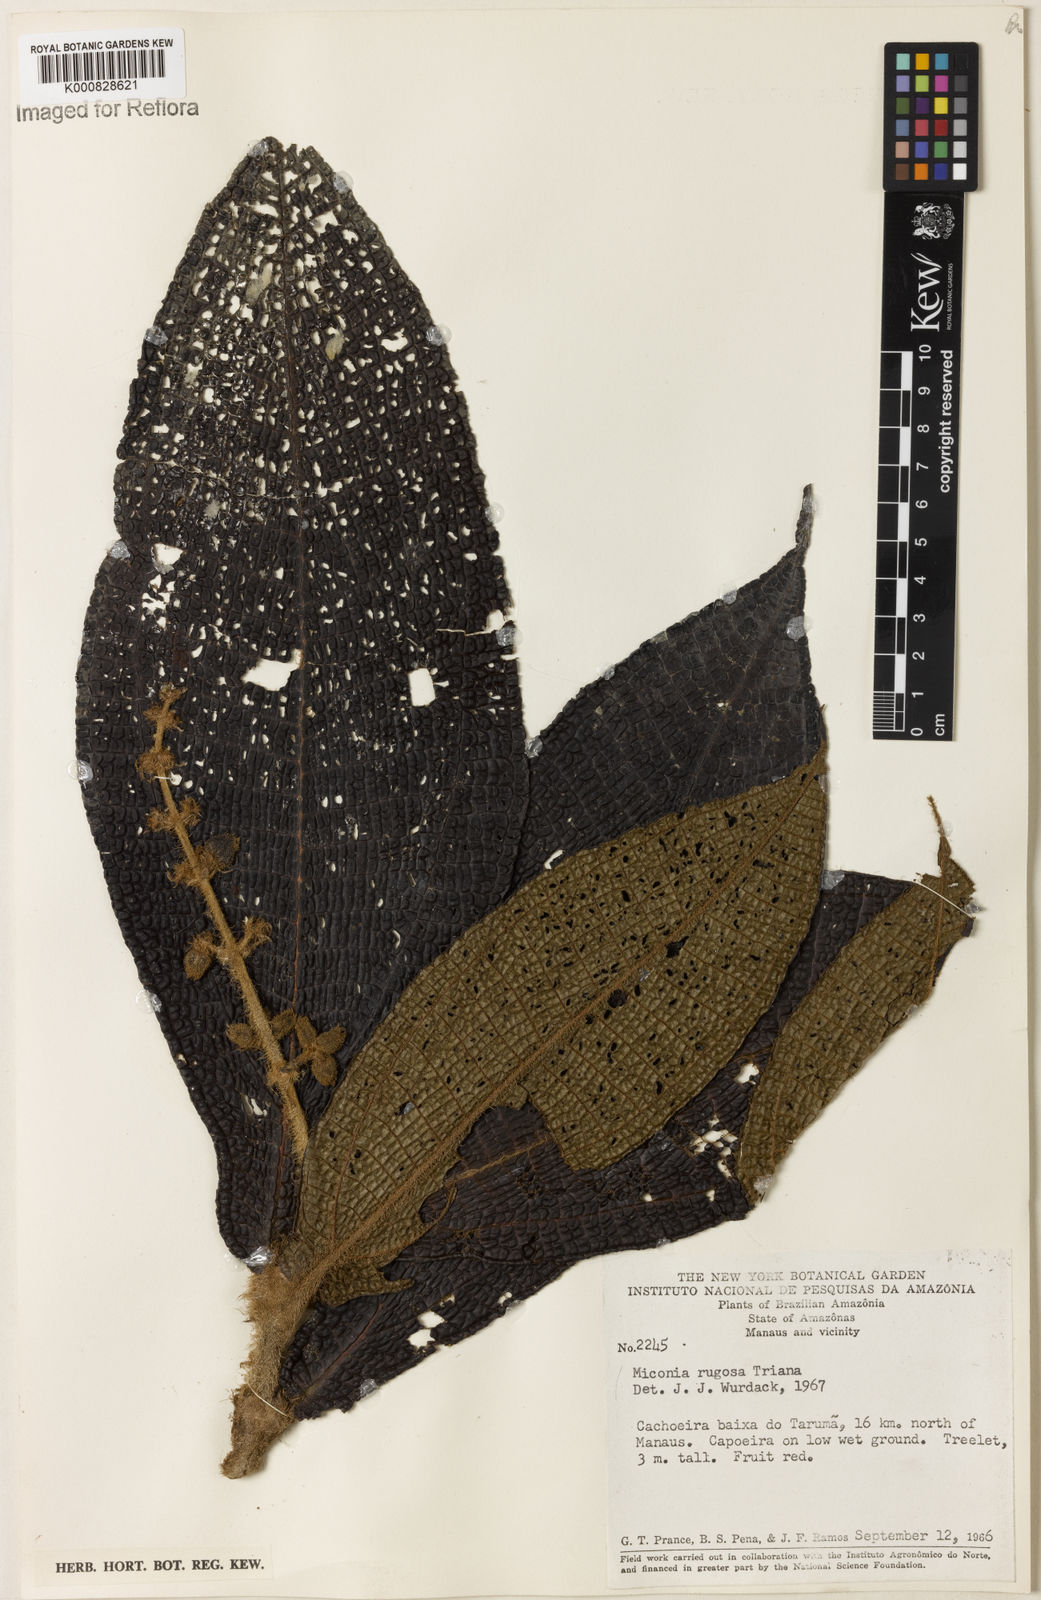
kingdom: Plantae
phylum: Tracheophyta
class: Magnoliopsida
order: Myrtales
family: Melastomataceae
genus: Miconia
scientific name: Miconia rugosa
